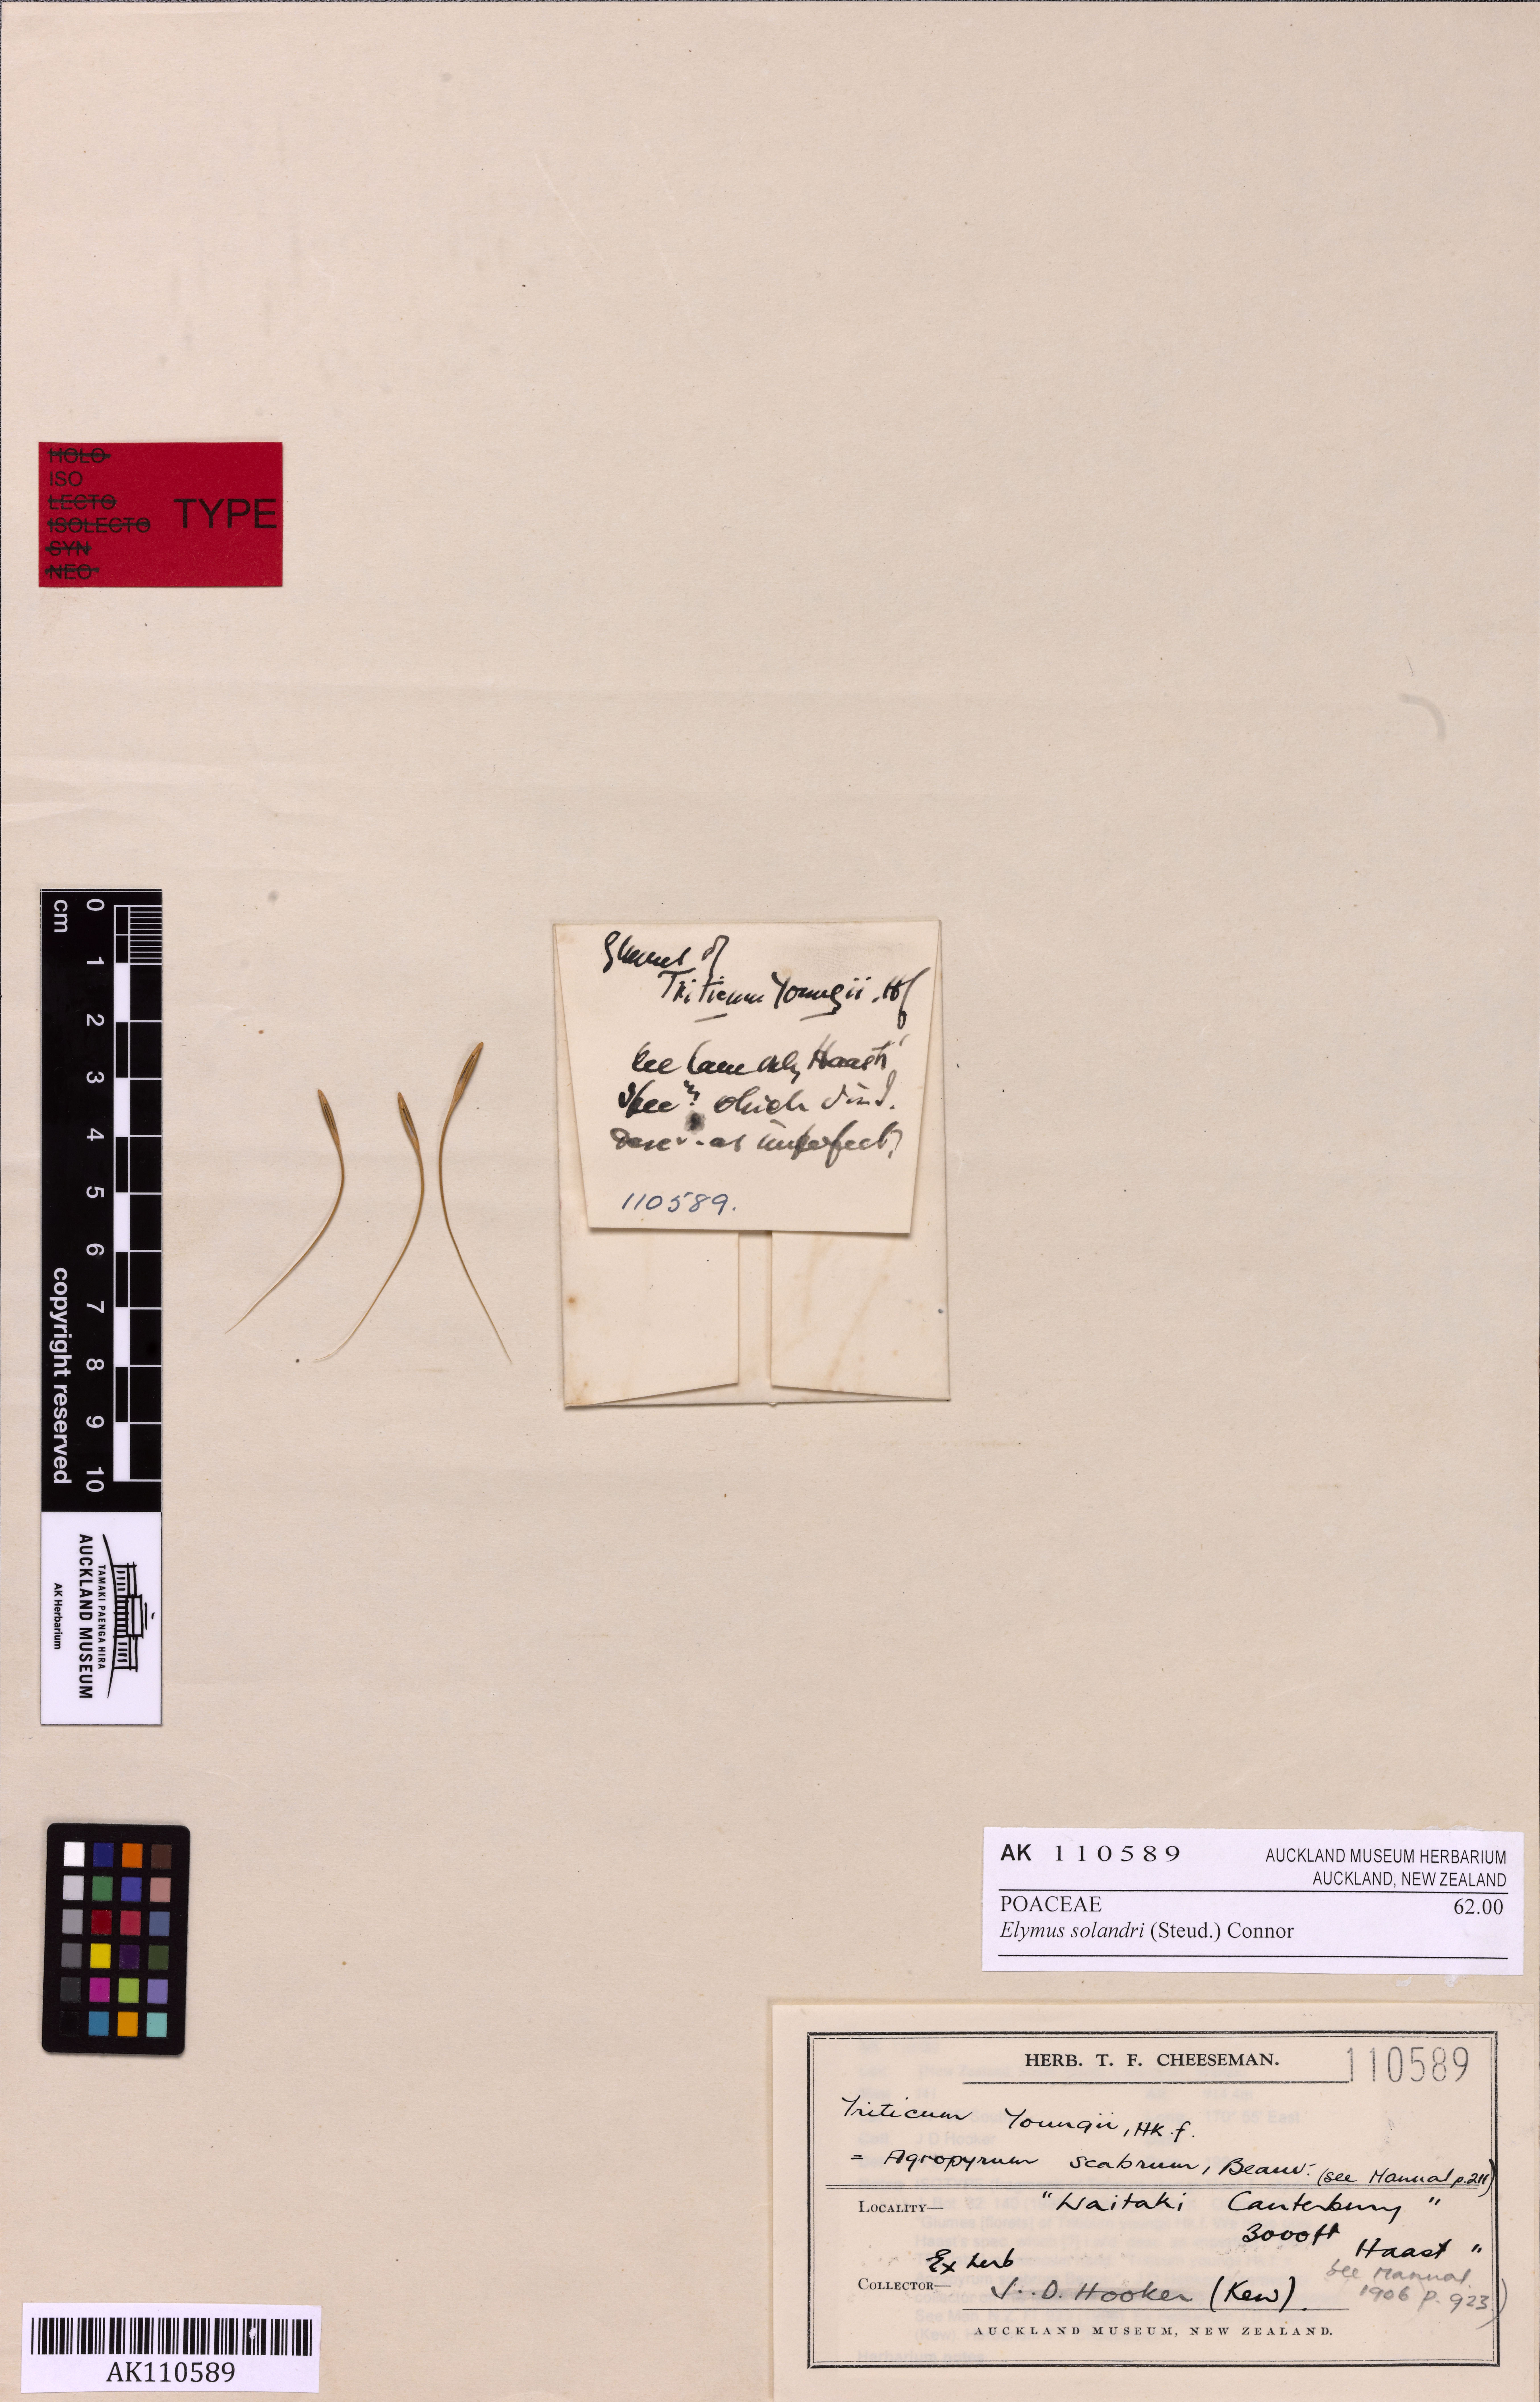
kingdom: Plantae
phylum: Tracheophyta
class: Liliopsida
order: Poales
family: Poaceae
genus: Anthosachne
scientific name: Anthosachne solandri
